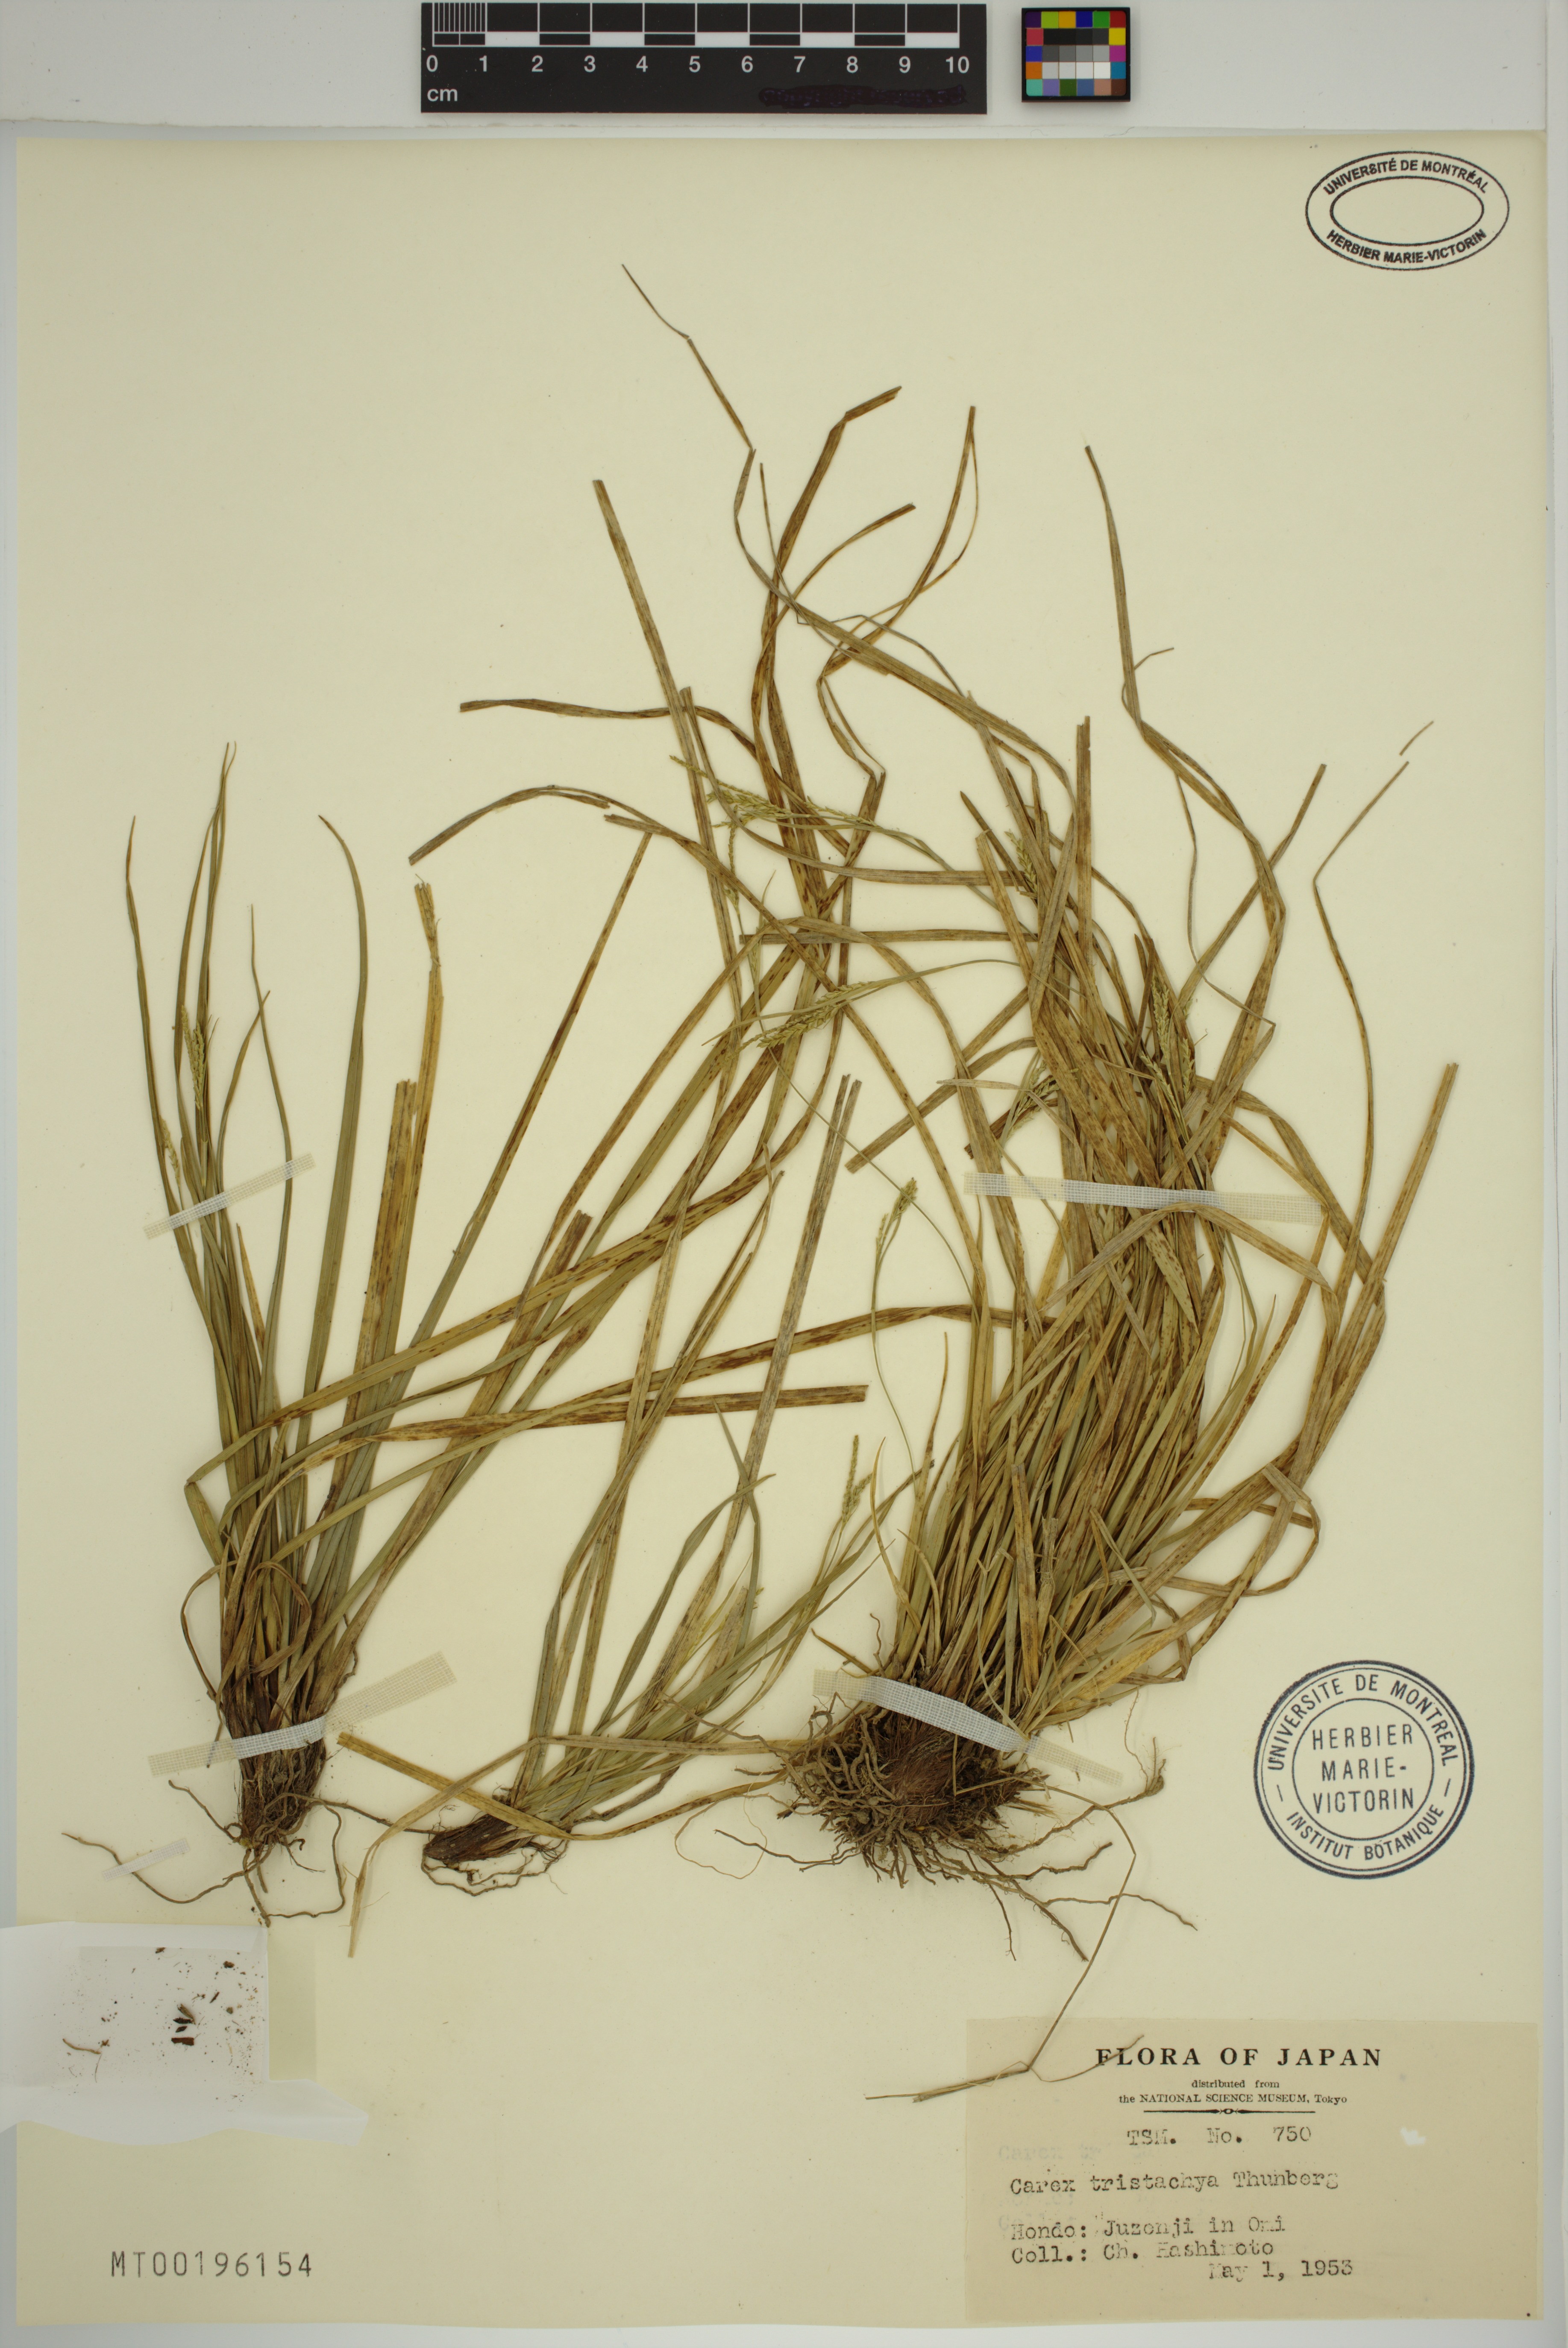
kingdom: Plantae
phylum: Tracheophyta
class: Liliopsida
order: Poales
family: Cyperaceae
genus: Carex
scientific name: Carex tristachya
